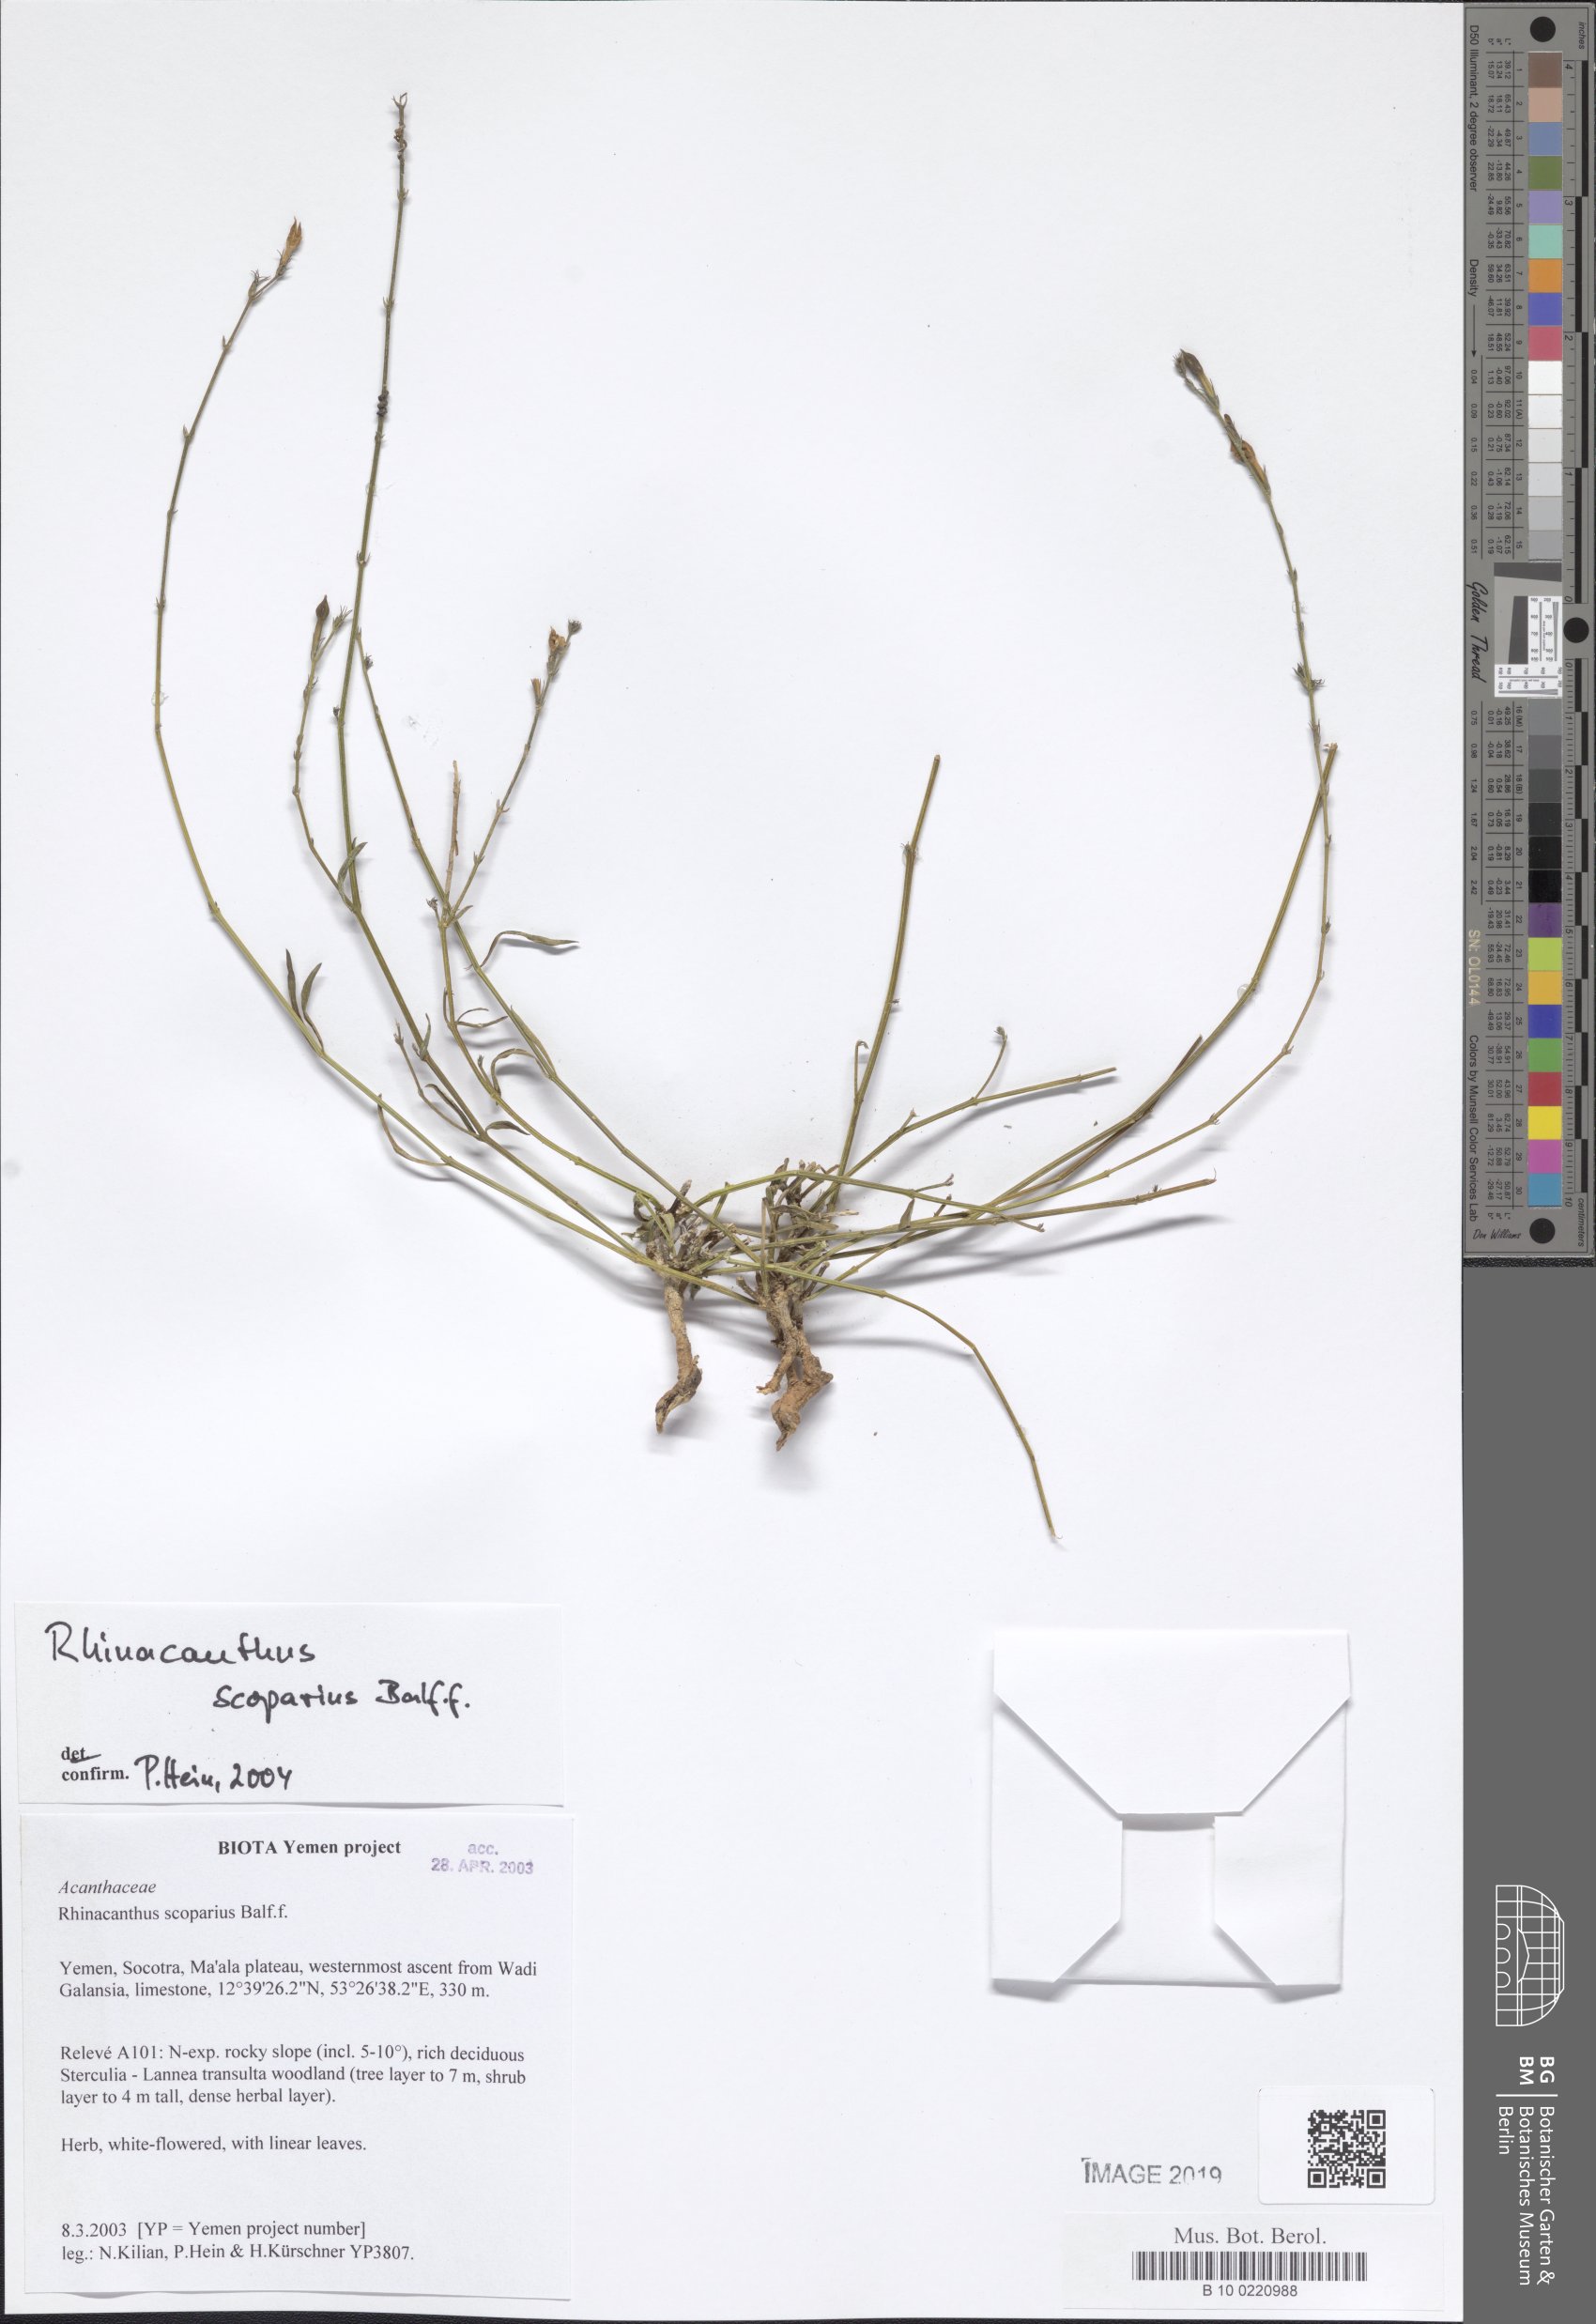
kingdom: Plantae
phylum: Tracheophyta
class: Magnoliopsida
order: Lamiales
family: Acanthaceae
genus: Rhinacanthus
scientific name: Rhinacanthus scoparius
